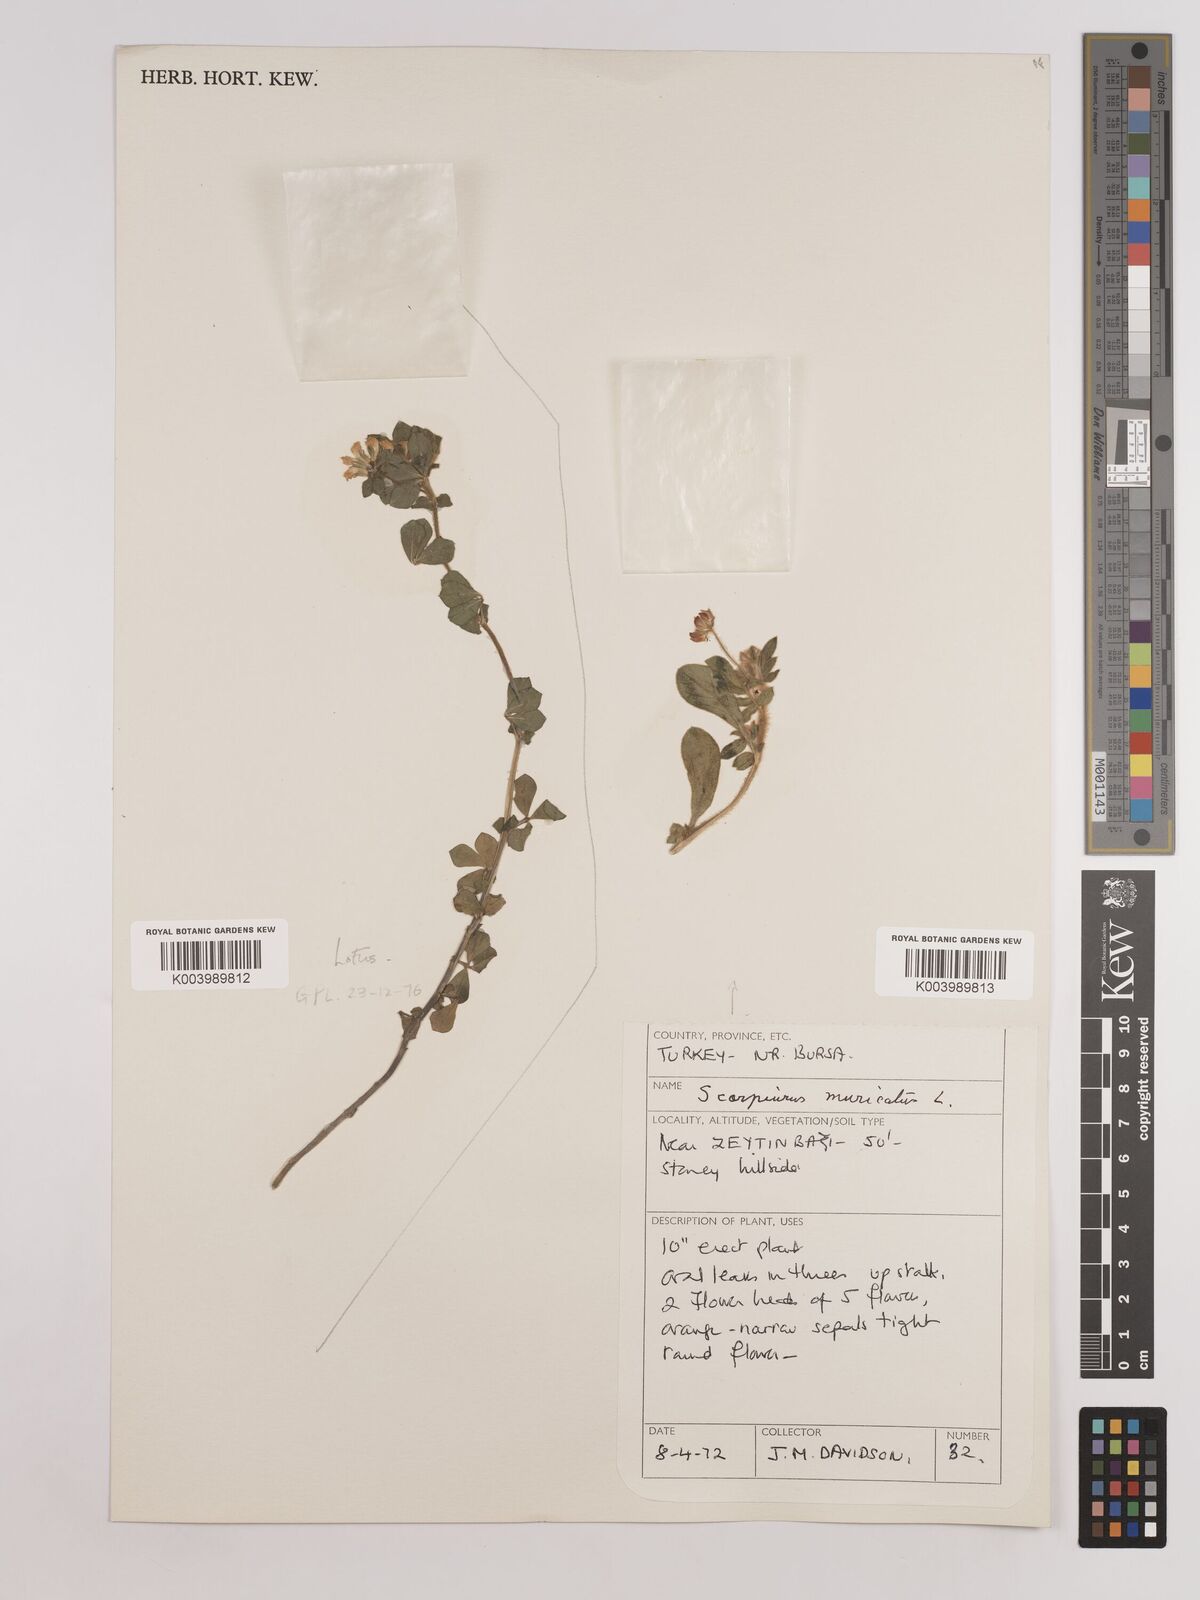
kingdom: Plantae
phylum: Tracheophyta
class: Magnoliopsida
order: Fabales
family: Fabaceae
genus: Scorpiurus
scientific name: Scorpiurus muricatus
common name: Caterpillar-plant
